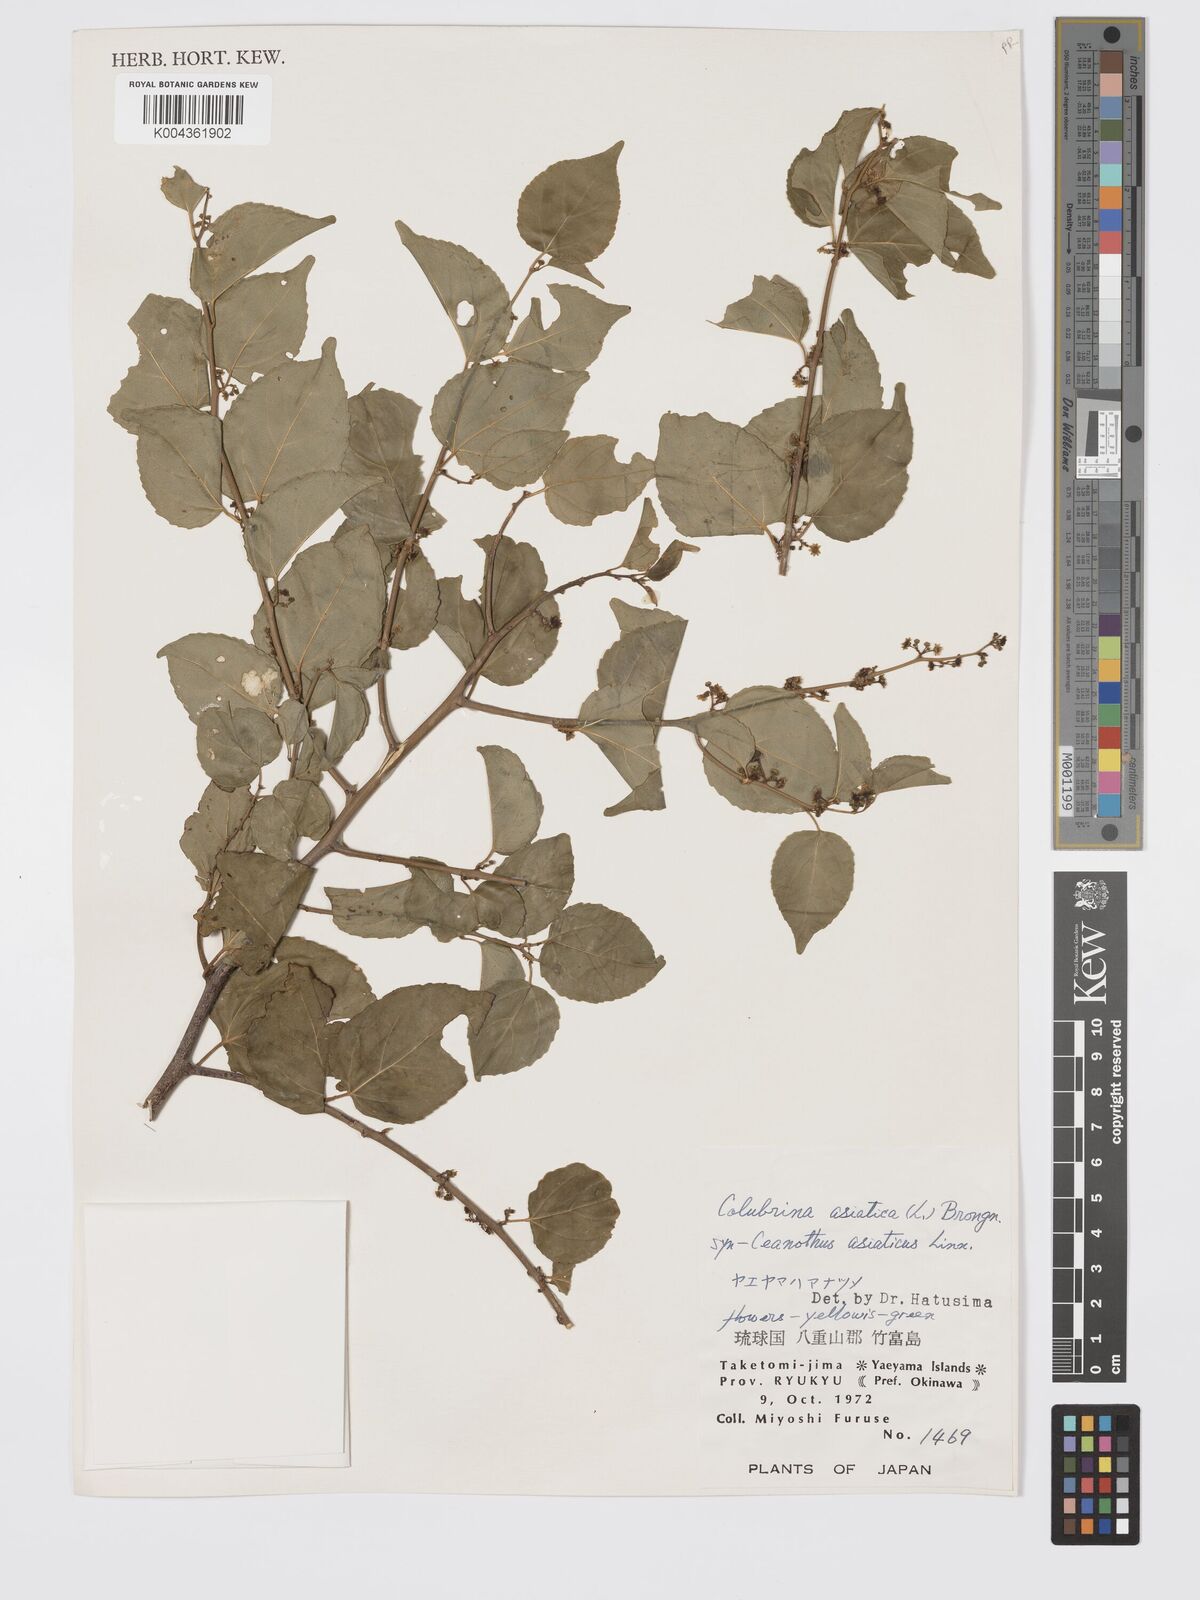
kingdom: Plantae
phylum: Tracheophyta
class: Magnoliopsida
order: Rosales
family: Rhamnaceae
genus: Colubrina
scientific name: Colubrina asiatica
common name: Asian nakedwood
